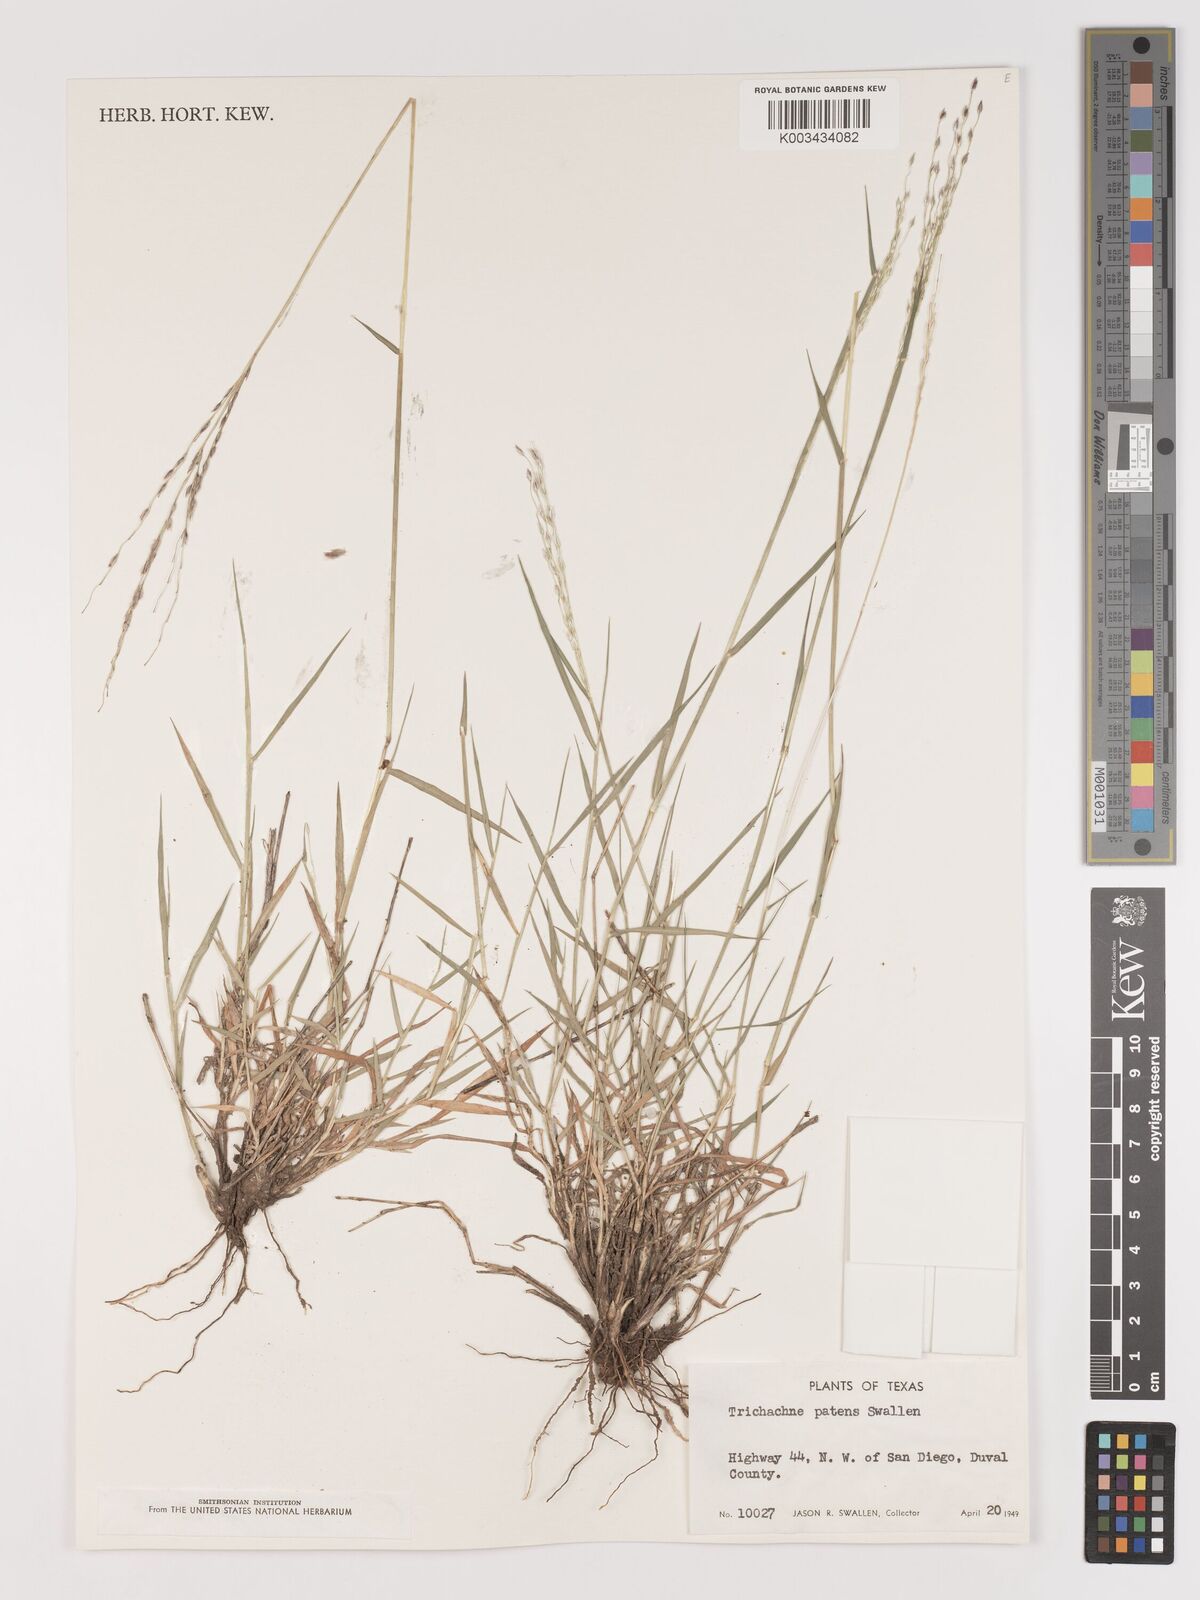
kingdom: Plantae
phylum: Tracheophyta
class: Liliopsida
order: Poales
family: Poaceae
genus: Digitaria
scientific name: Digitaria patens
